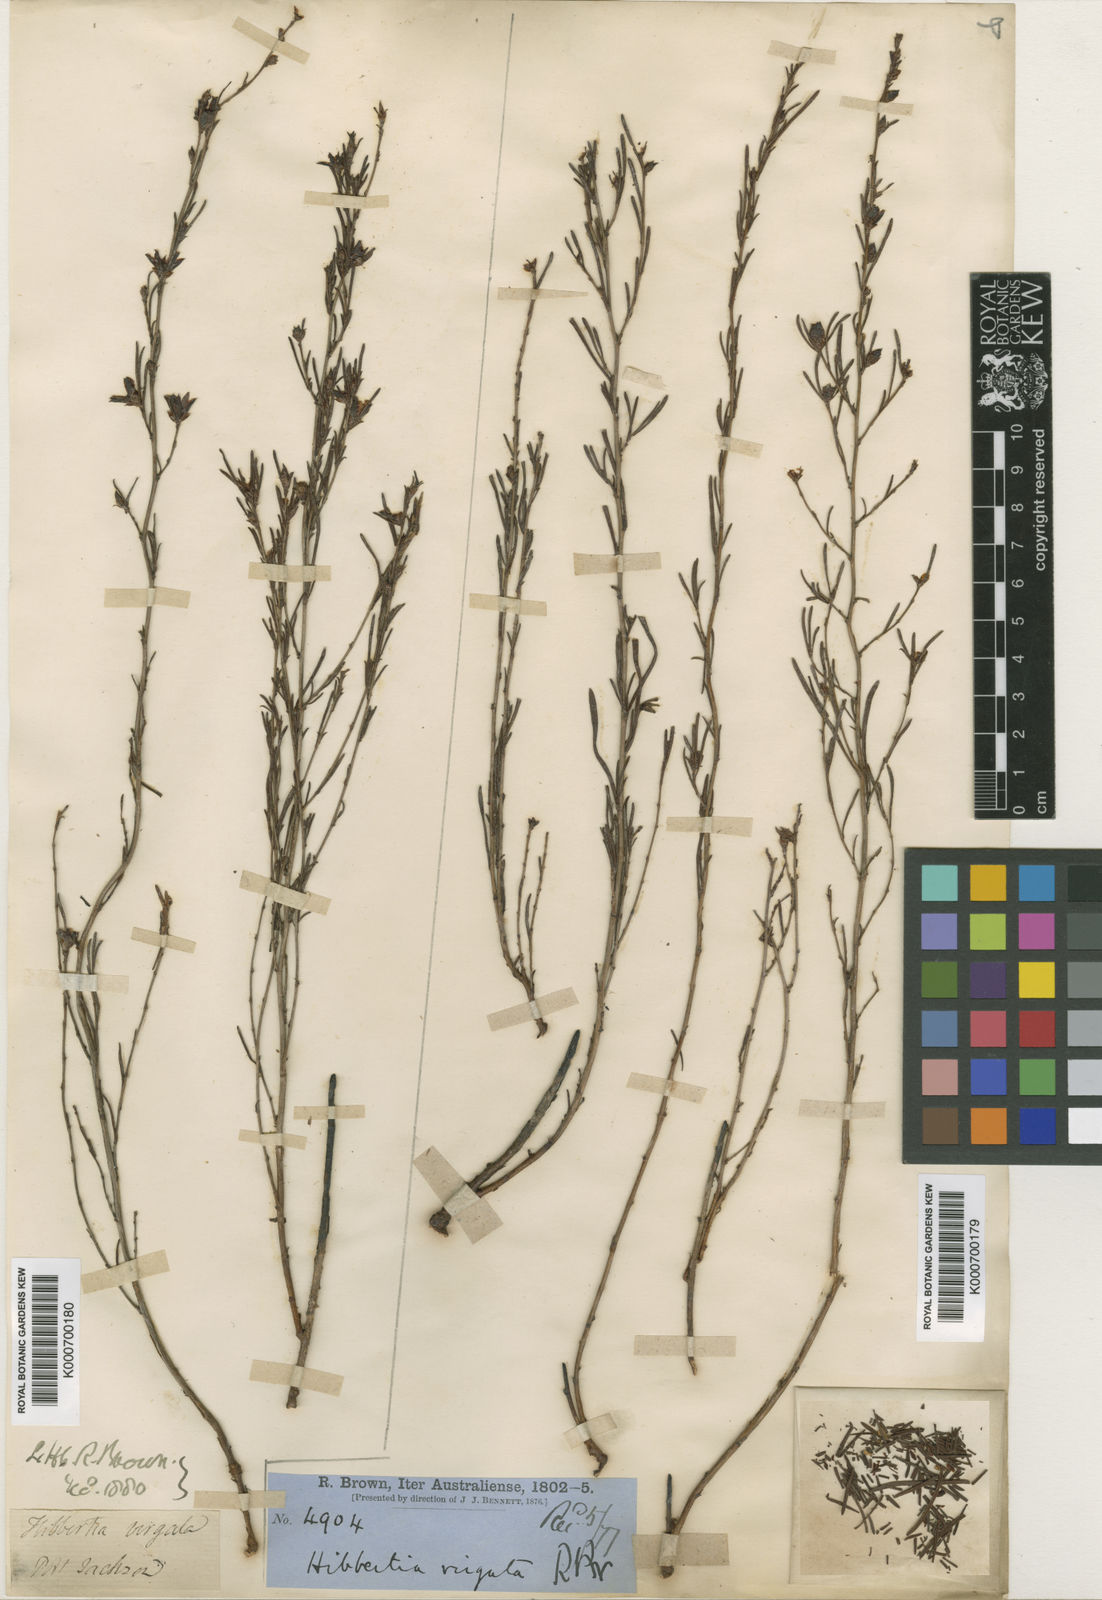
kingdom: Plantae
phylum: Tracheophyta
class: Magnoliopsida
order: Dilleniales
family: Dilleniaceae
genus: Hibbertia
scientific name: Hibbertia virgata
